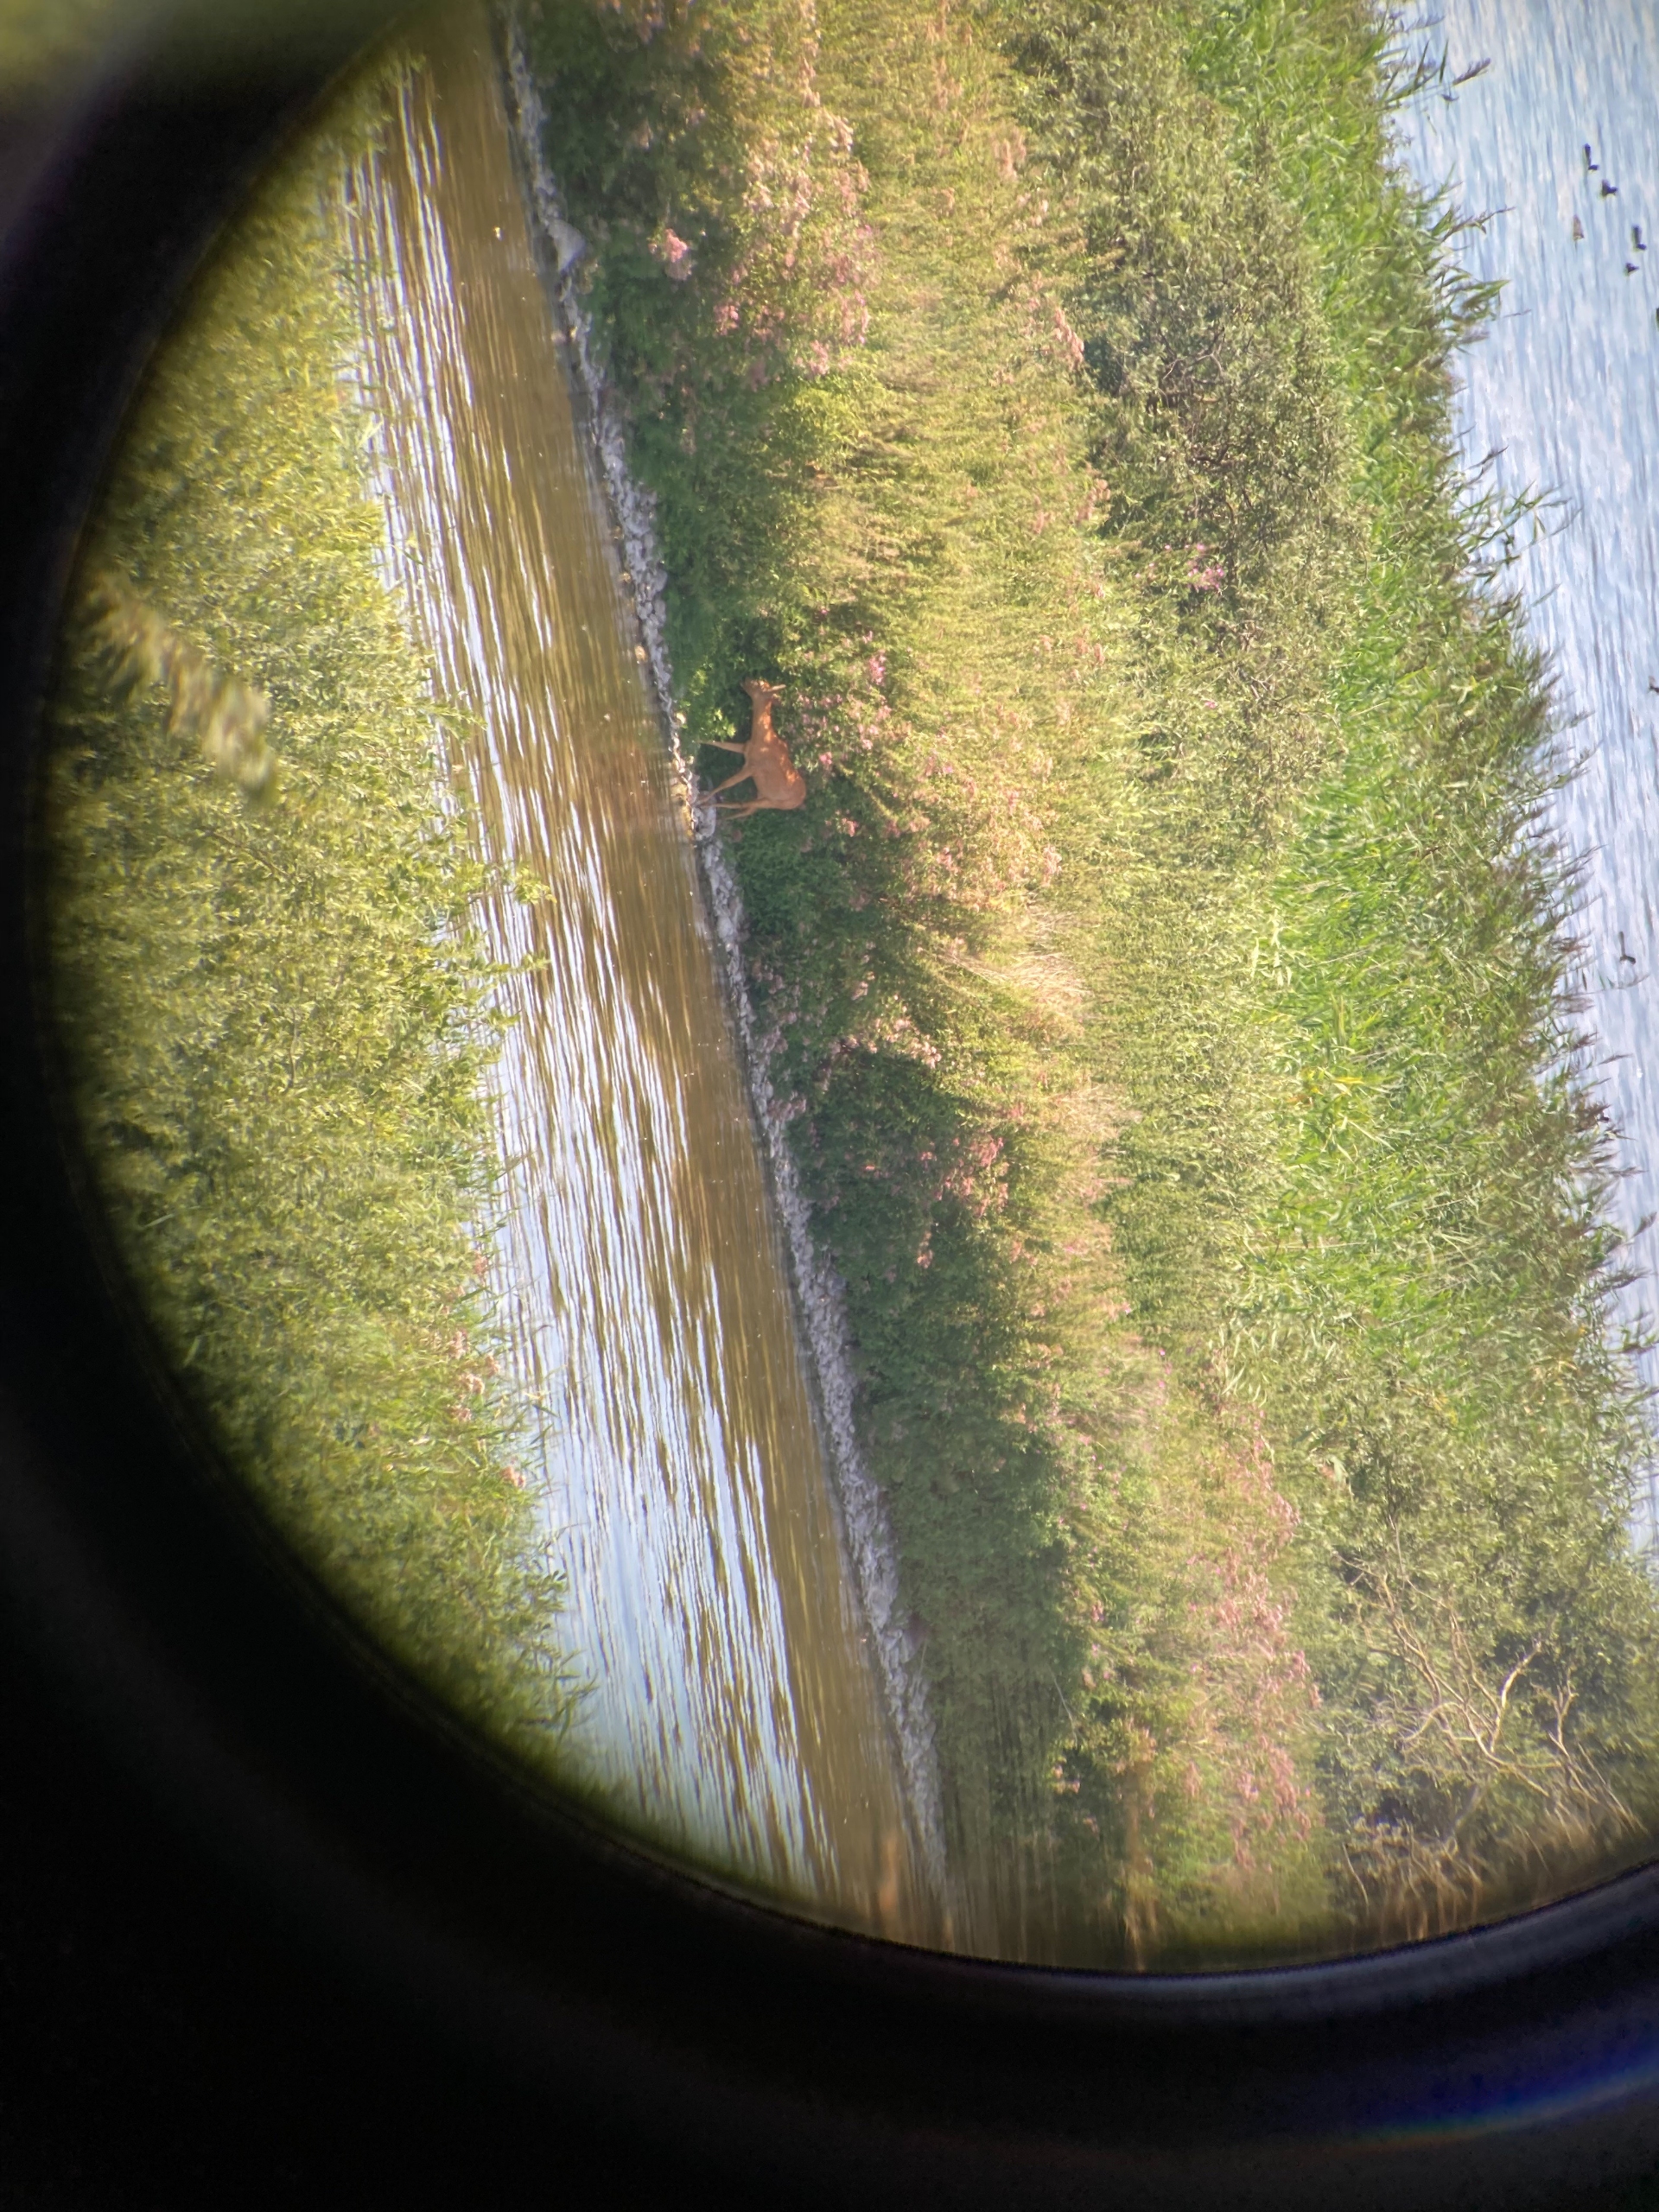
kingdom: Animalia
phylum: Chordata
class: Mammalia
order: Artiodactyla
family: Cervidae
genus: Capreolus
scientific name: Capreolus capreolus
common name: Rådyr
